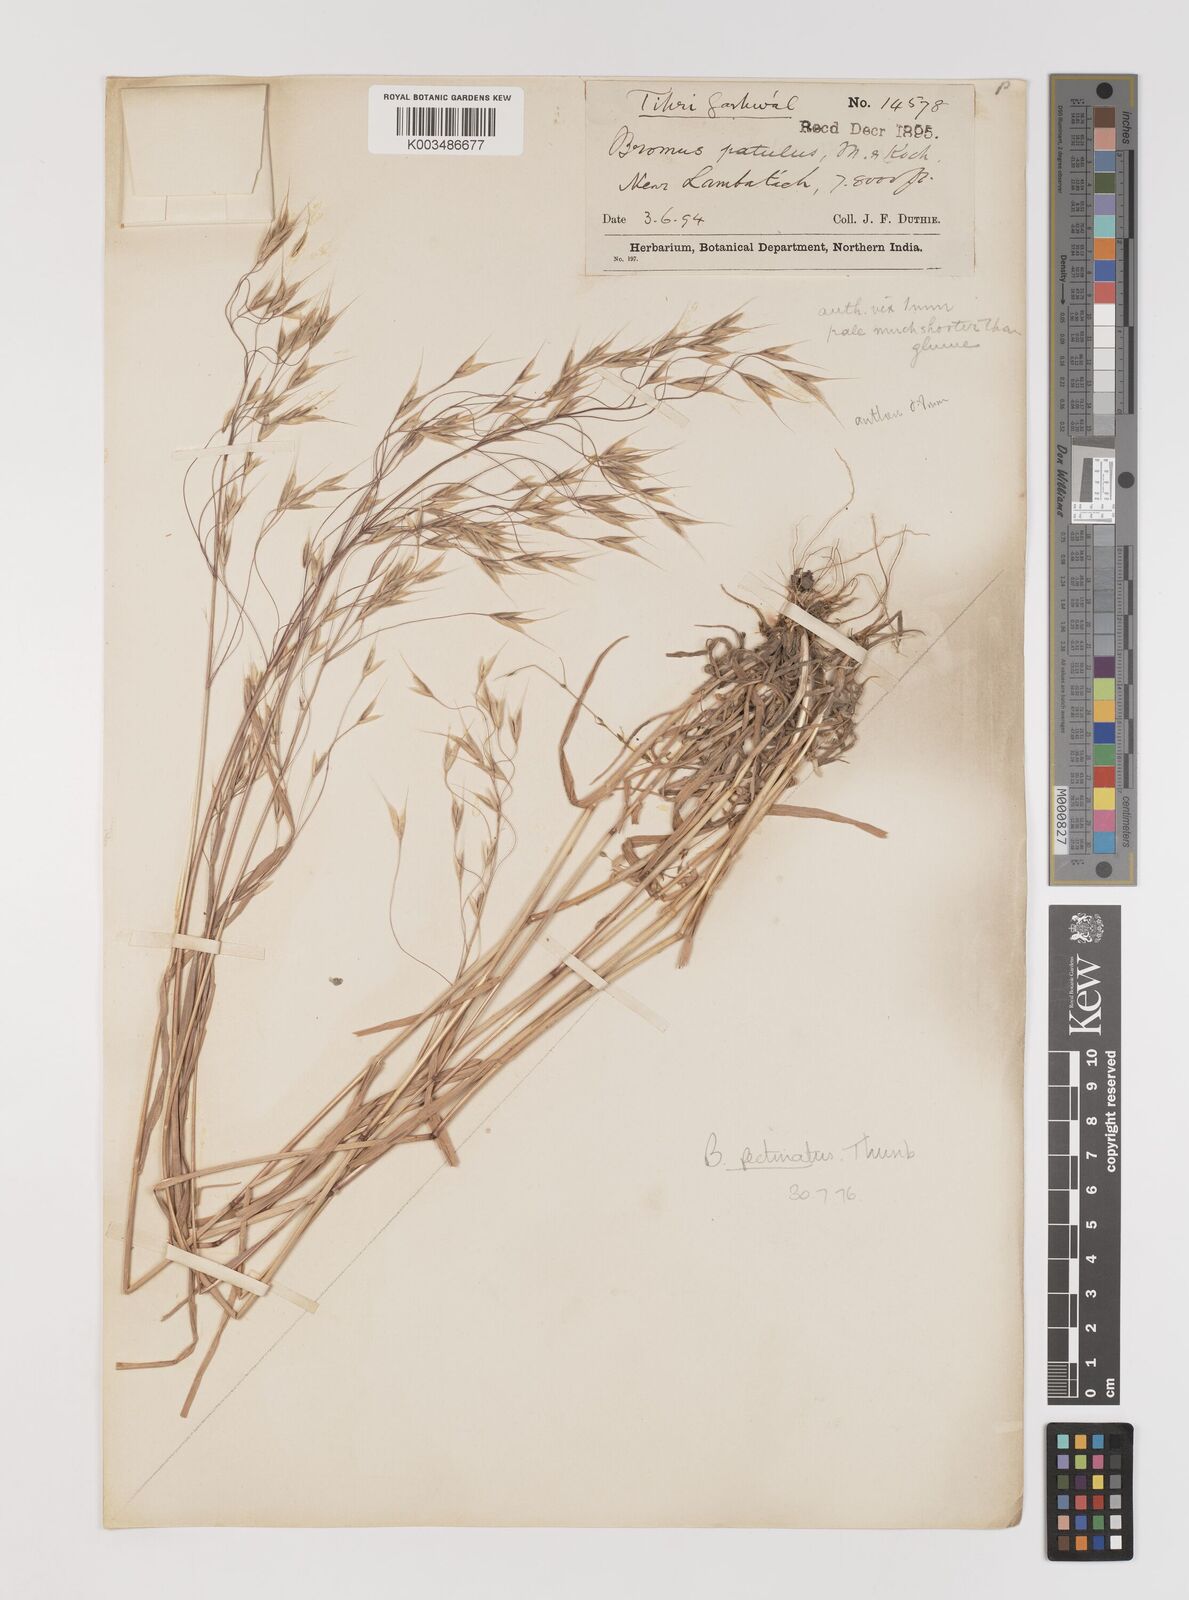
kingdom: Plantae
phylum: Tracheophyta
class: Liliopsida
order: Poales
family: Poaceae
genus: Bromus
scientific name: Bromus pectinatus
